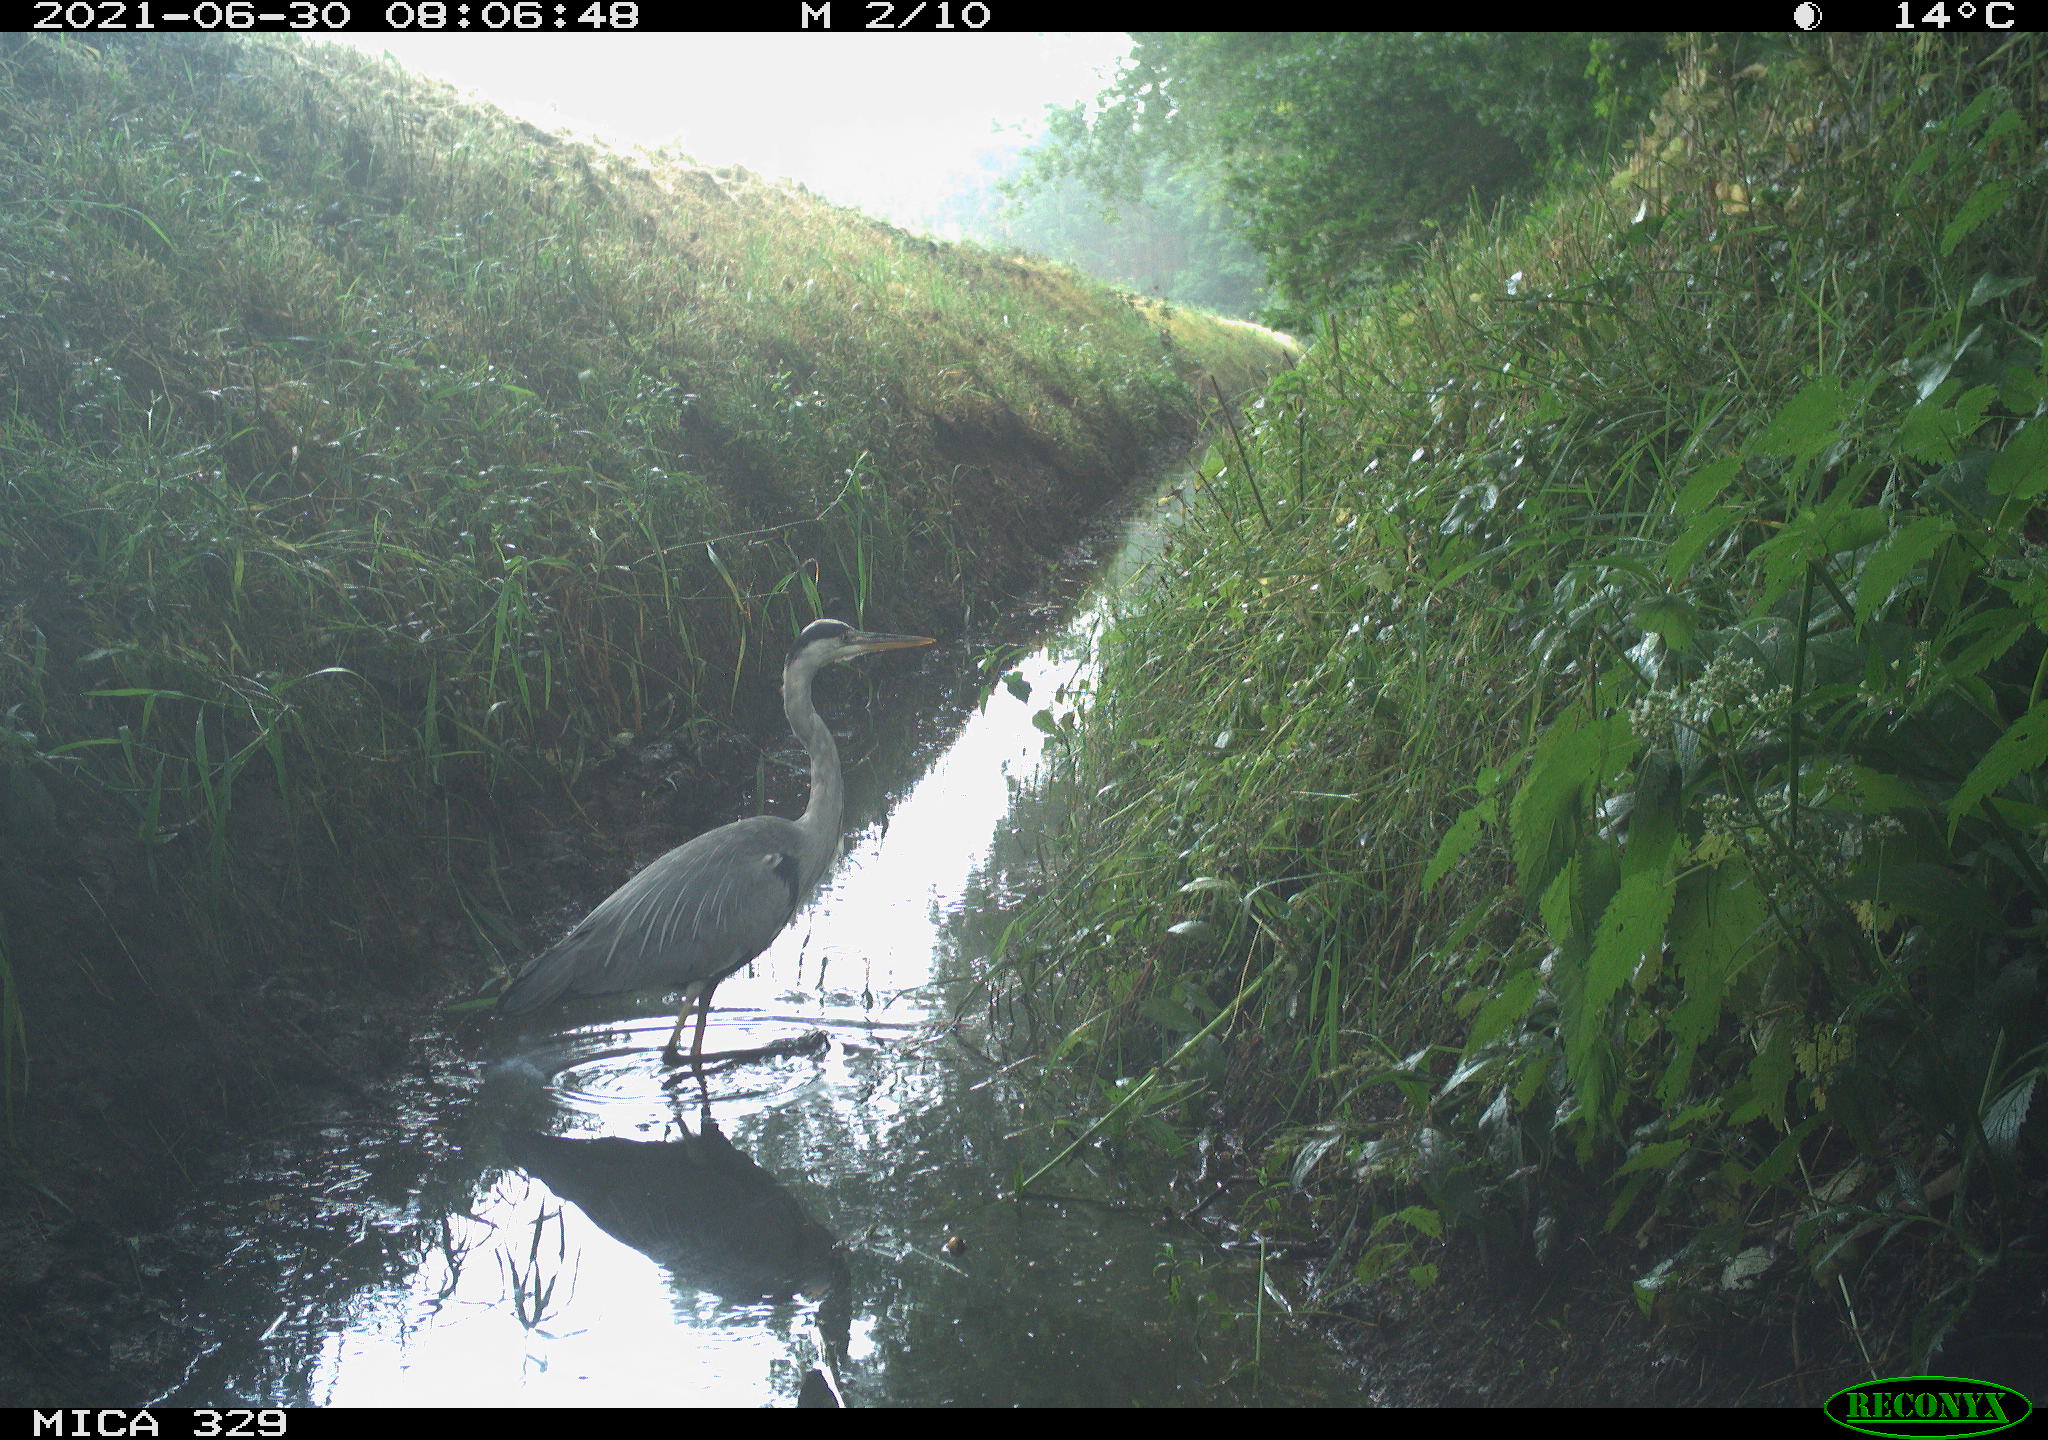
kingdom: Animalia
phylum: Chordata
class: Aves
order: Pelecaniformes
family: Ardeidae
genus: Ardea
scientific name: Ardea cinerea
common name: Grey heron
